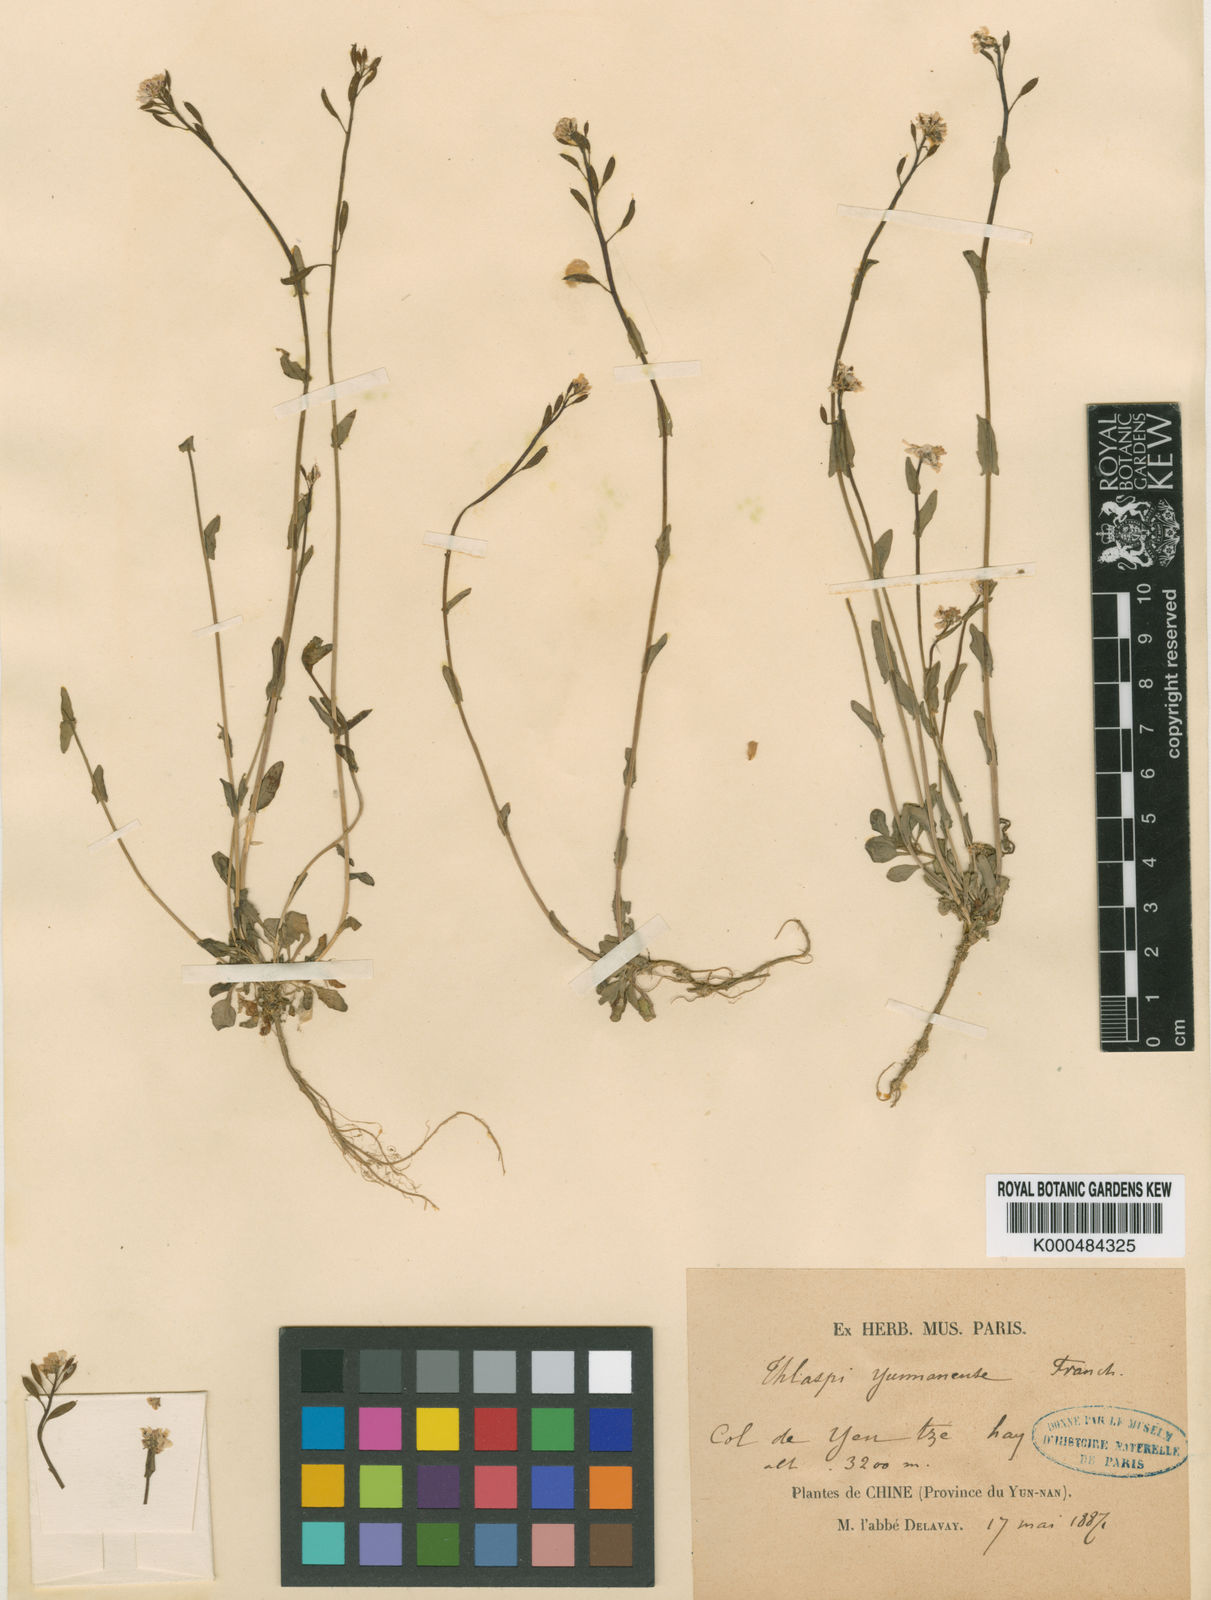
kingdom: Plantae
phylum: Tracheophyta
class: Magnoliopsida
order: Brassicales
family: Brassicaceae
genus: Noccaea
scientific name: Noccaea yunnanensis
